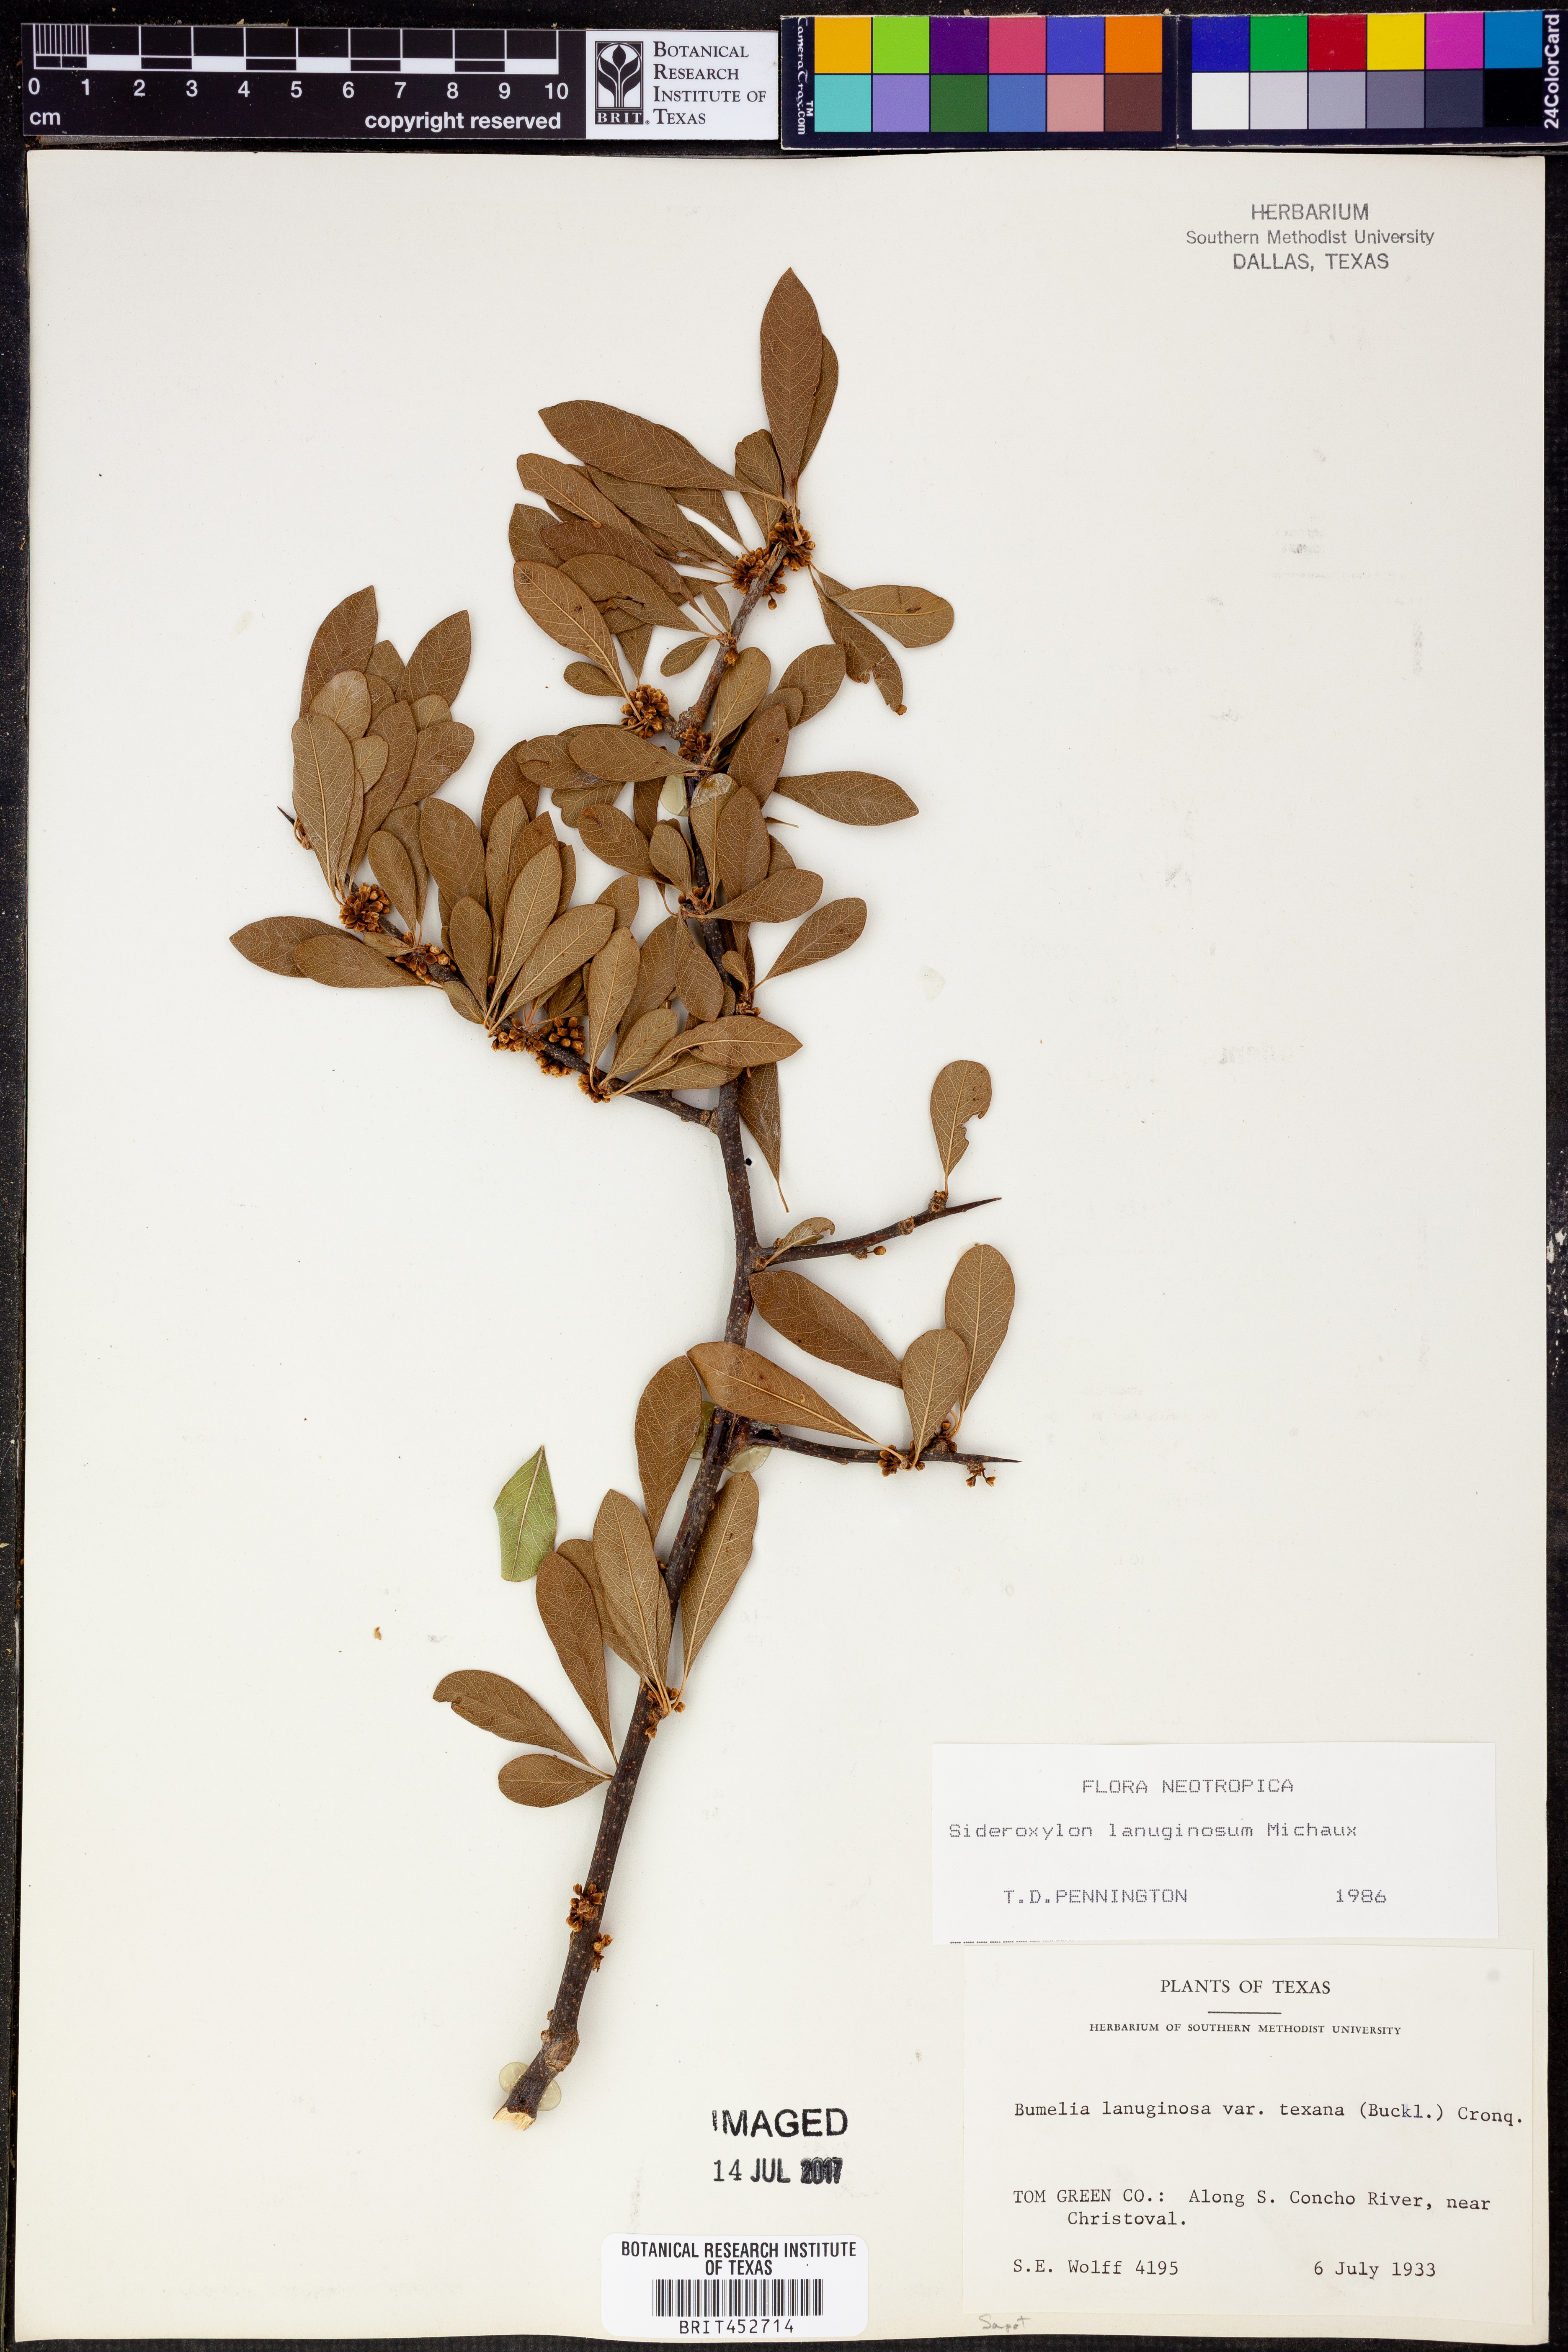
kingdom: Plantae
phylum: Tracheophyta
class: Magnoliopsida
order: Ericales
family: Sapotaceae
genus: Sideroxylon
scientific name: Sideroxylon lanuginosum
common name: Chittamwood
